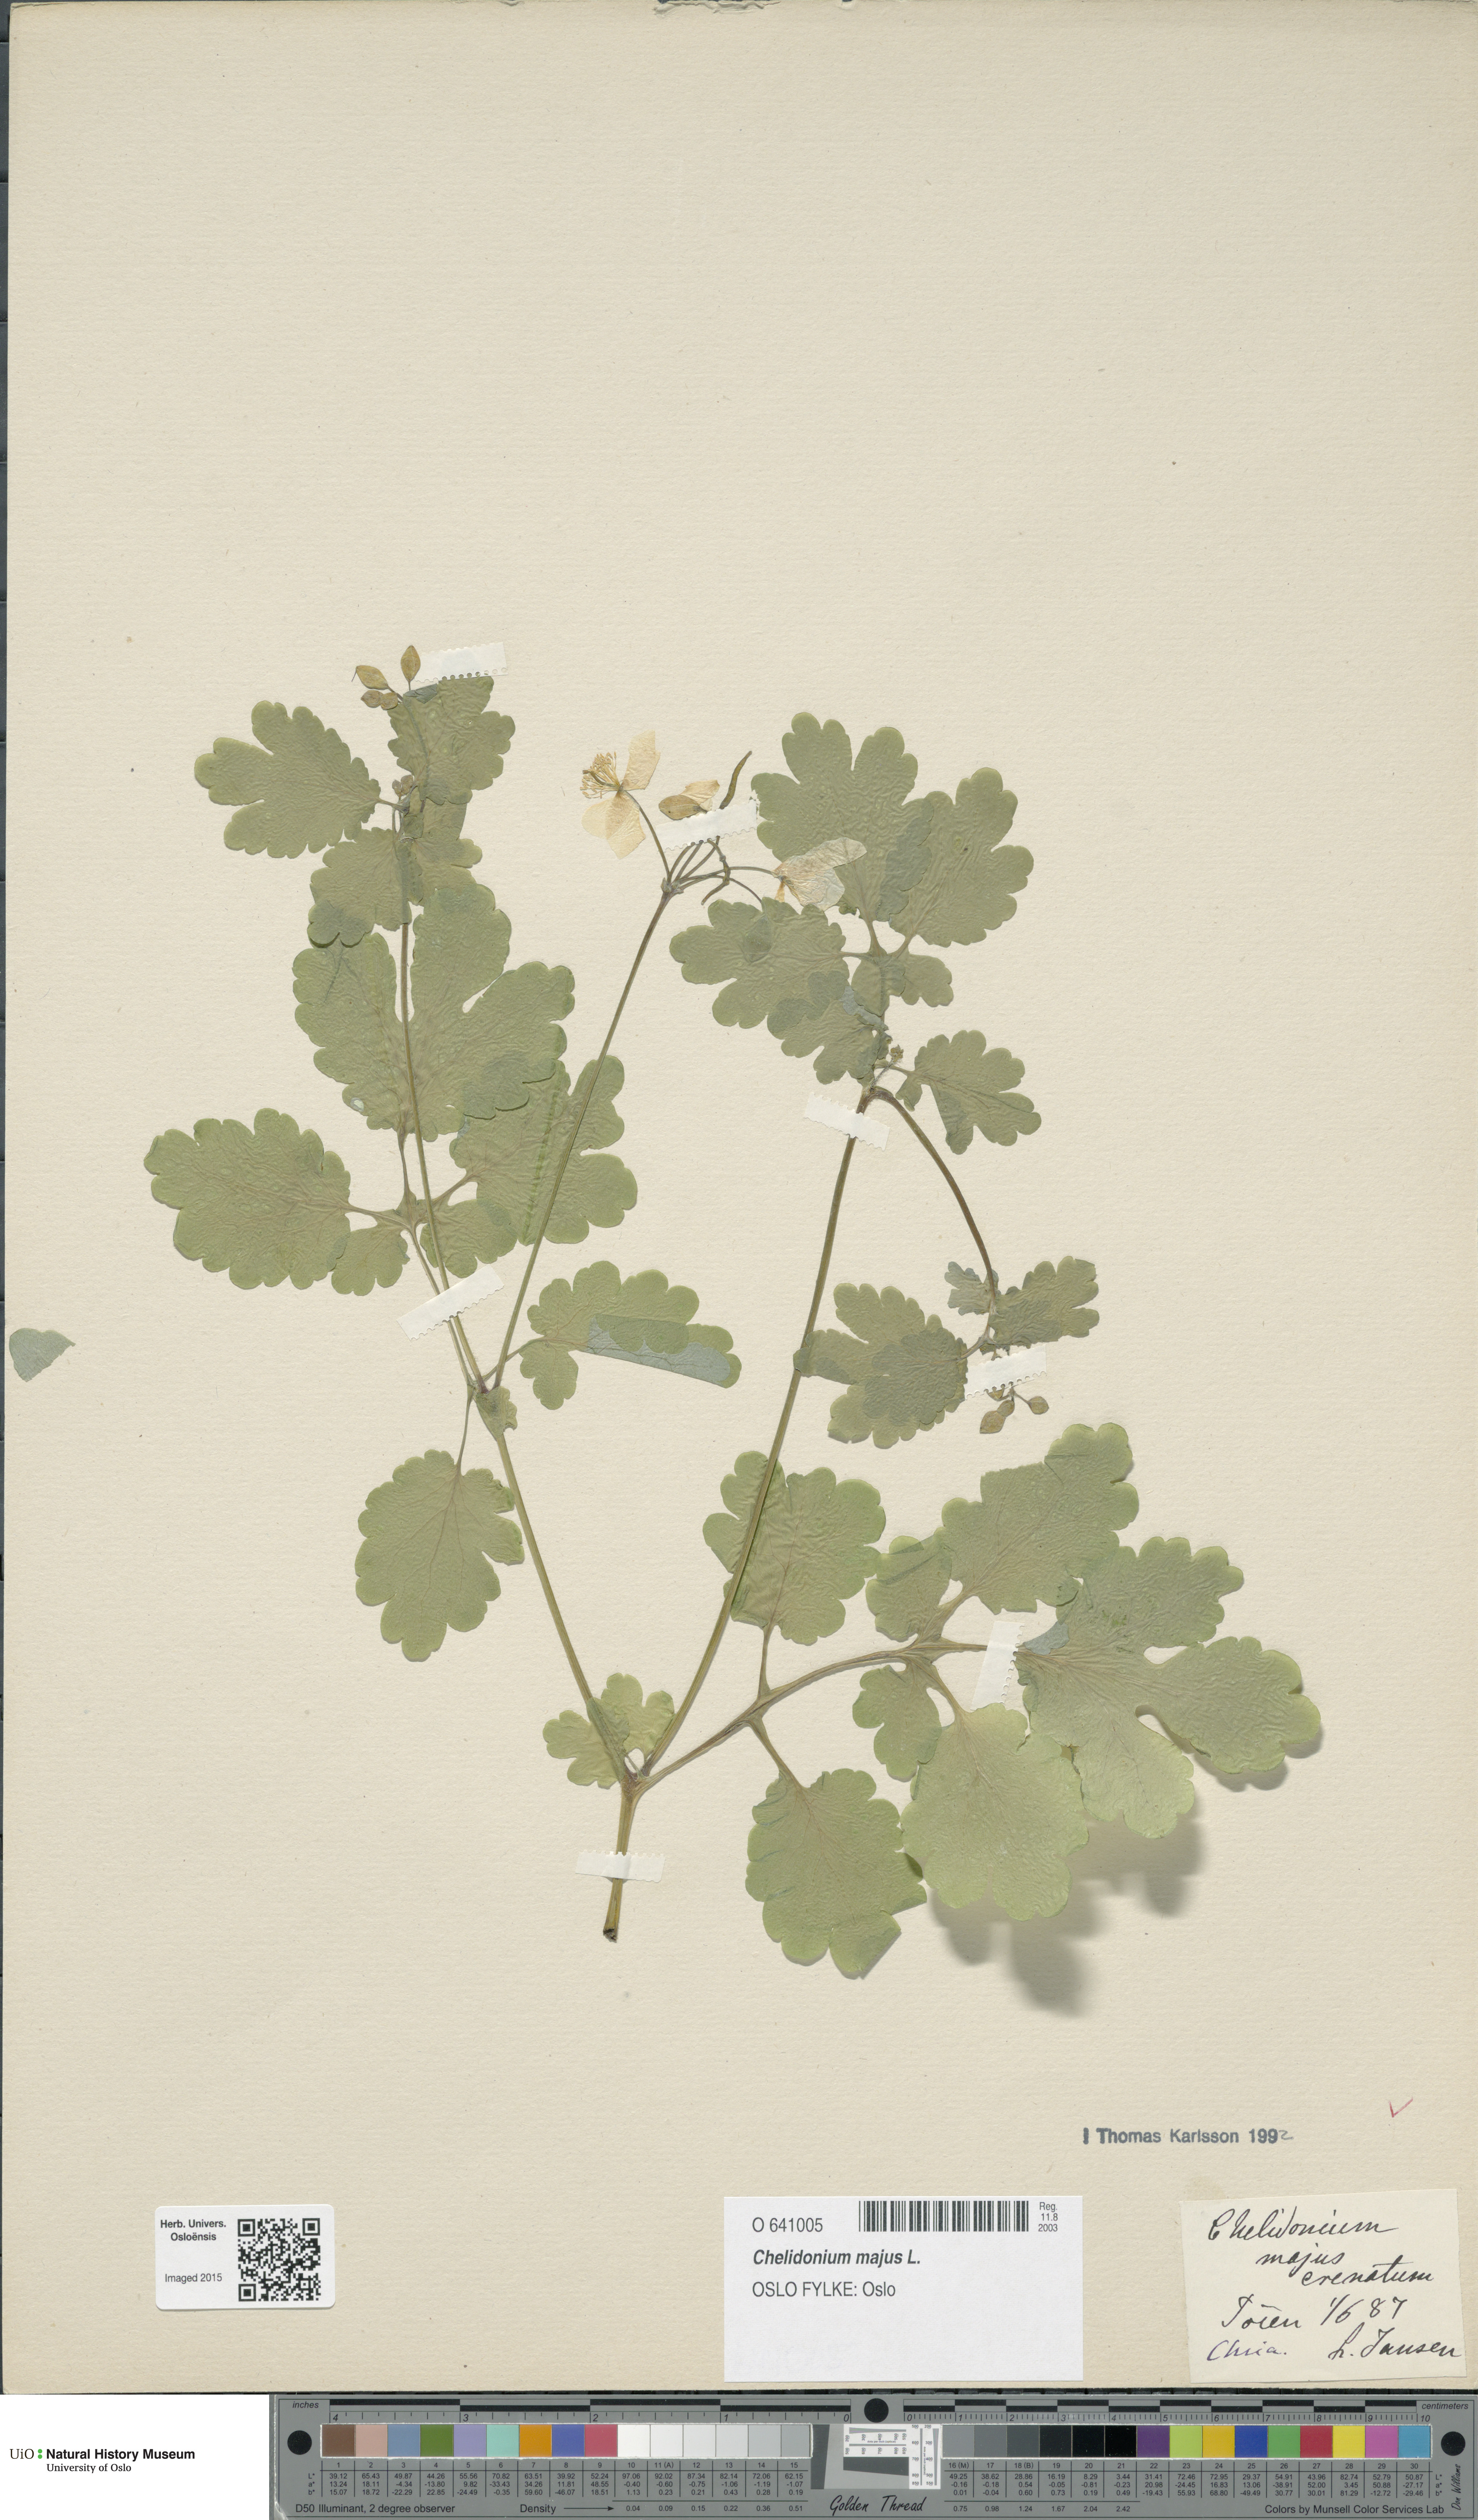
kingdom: Plantae
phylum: Tracheophyta
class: Magnoliopsida
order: Ranunculales
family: Papaveraceae
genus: Chelidonium
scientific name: Chelidonium majus
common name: Greater celandine
